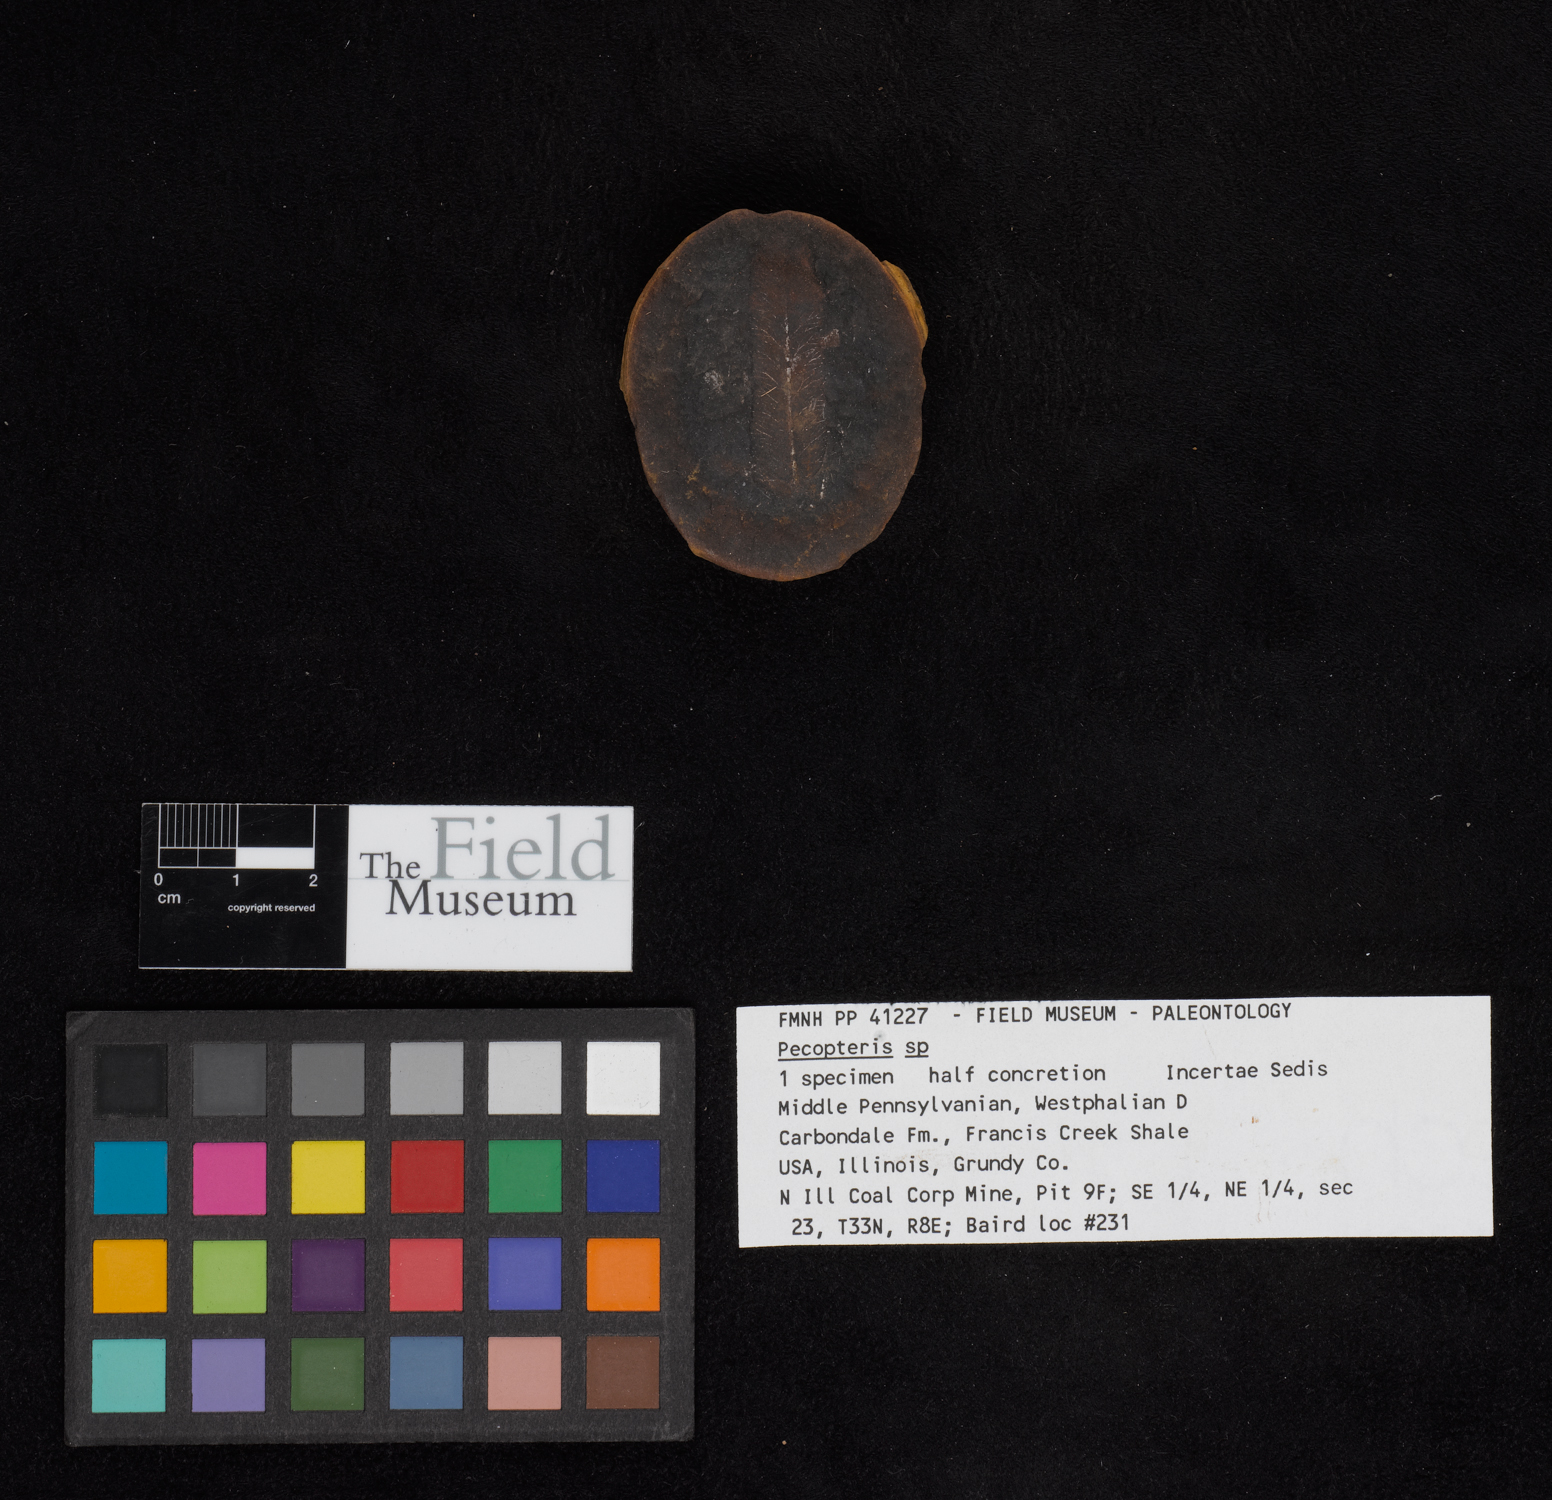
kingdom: Plantae
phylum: Tracheophyta
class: Polypodiopsida
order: Marattiales
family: Asterothecaceae
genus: Pecopteris
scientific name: Pecopteris
